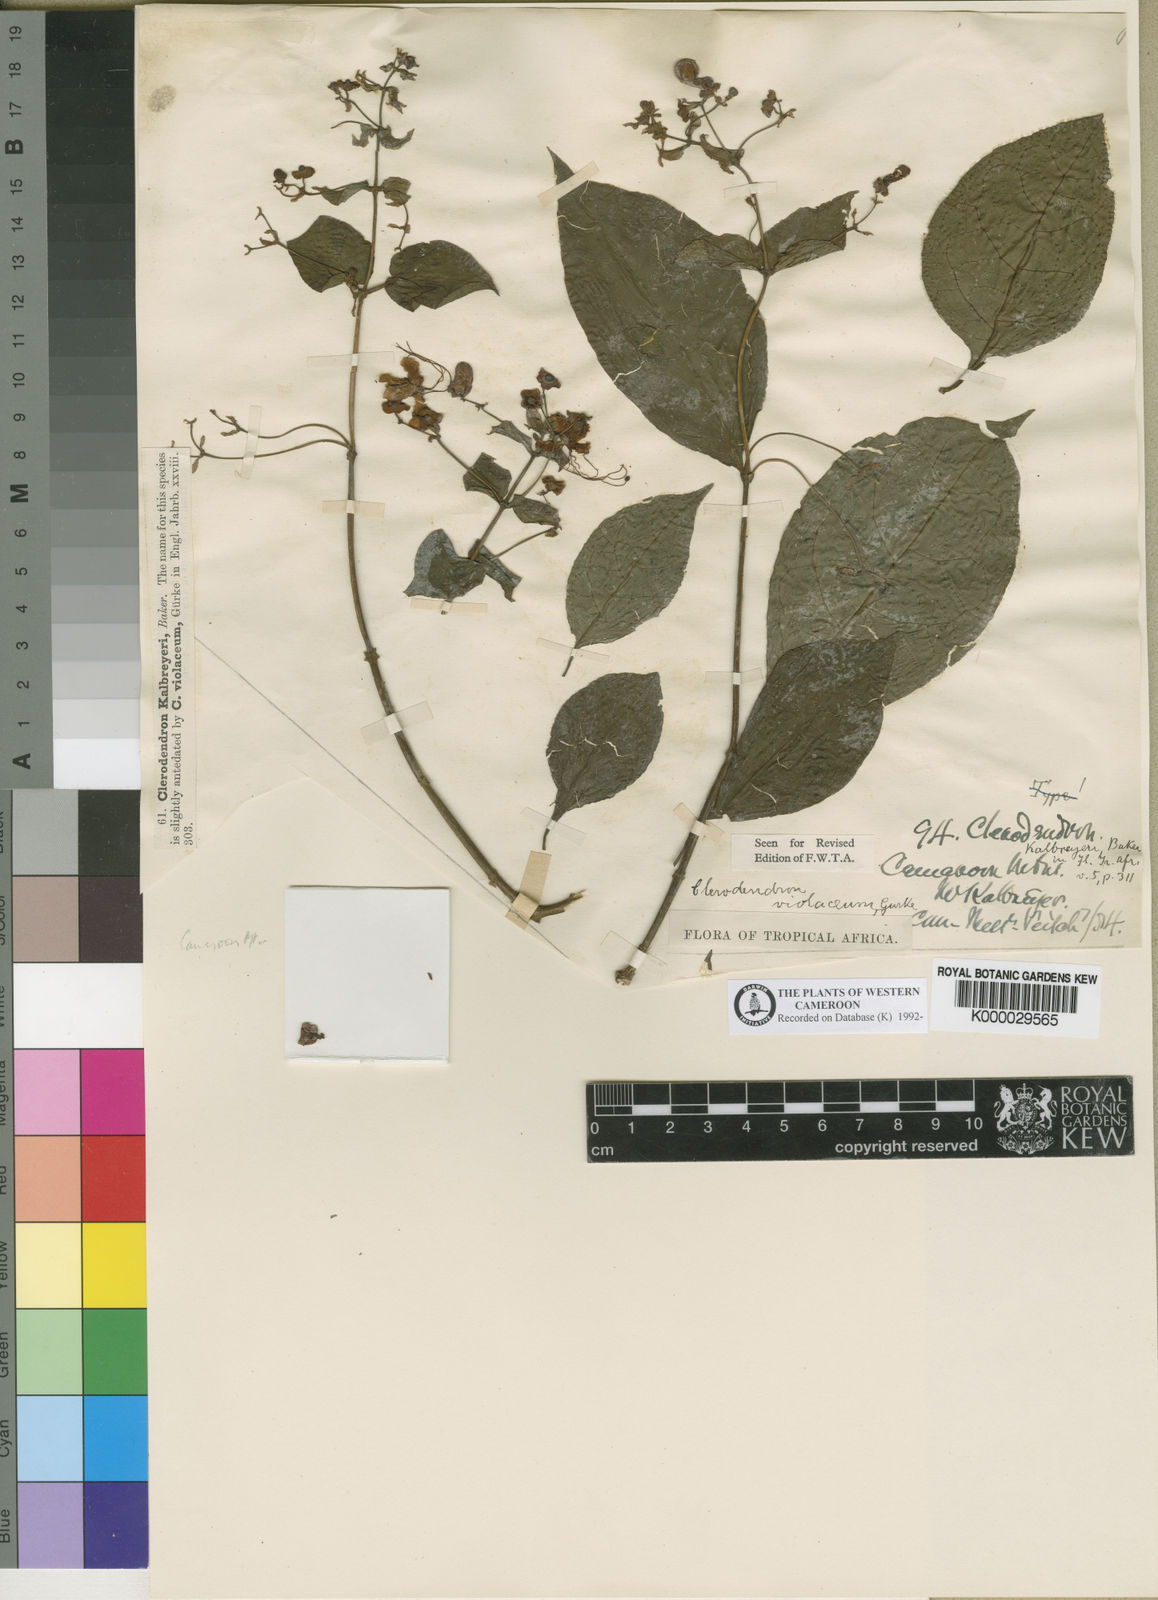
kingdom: Plantae
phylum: Tracheophyta
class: Magnoliopsida
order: Lamiales
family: Lamiaceae
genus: Clerodendrum
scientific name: Clerodendrum
